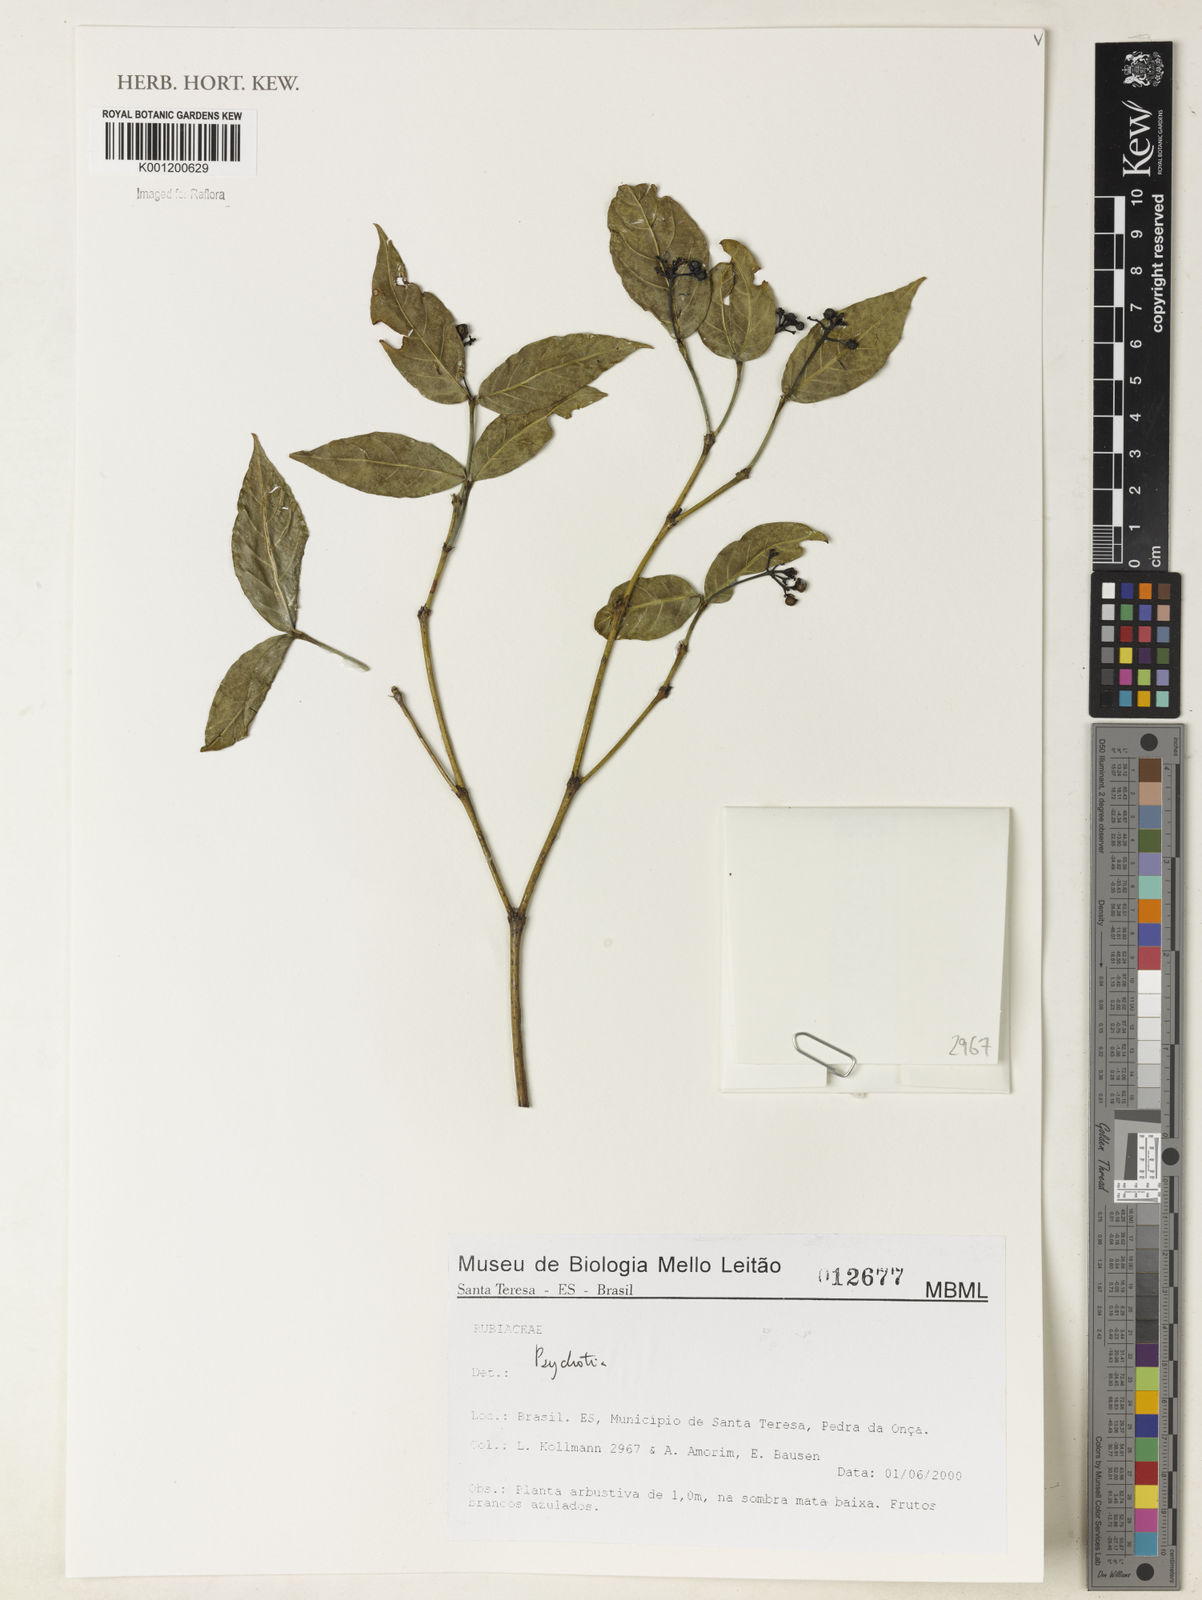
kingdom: Plantae
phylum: Tracheophyta
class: Magnoliopsida
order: Gentianales
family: Rubiaceae
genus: Psychotria
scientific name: Psychotria
